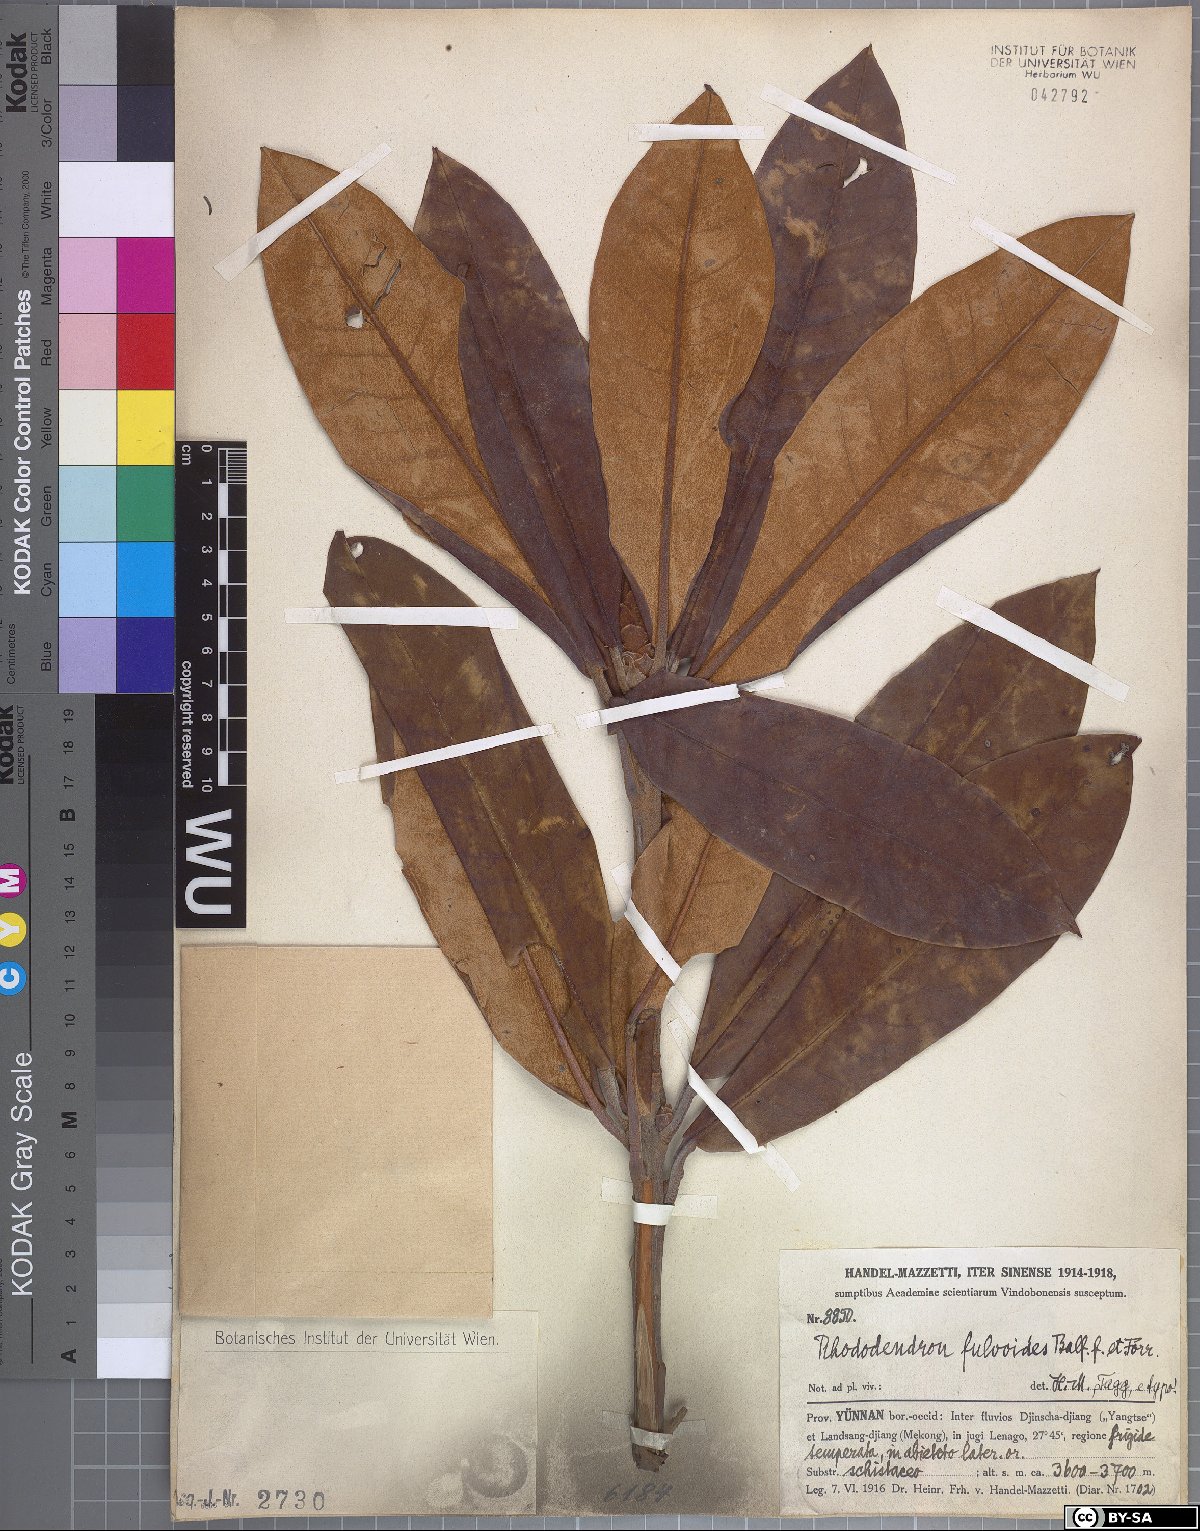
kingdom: Plantae
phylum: Tracheophyta
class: Magnoliopsida
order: Ericales
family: Ericaceae
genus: Rhododendron
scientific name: Rhododendron fulvum
